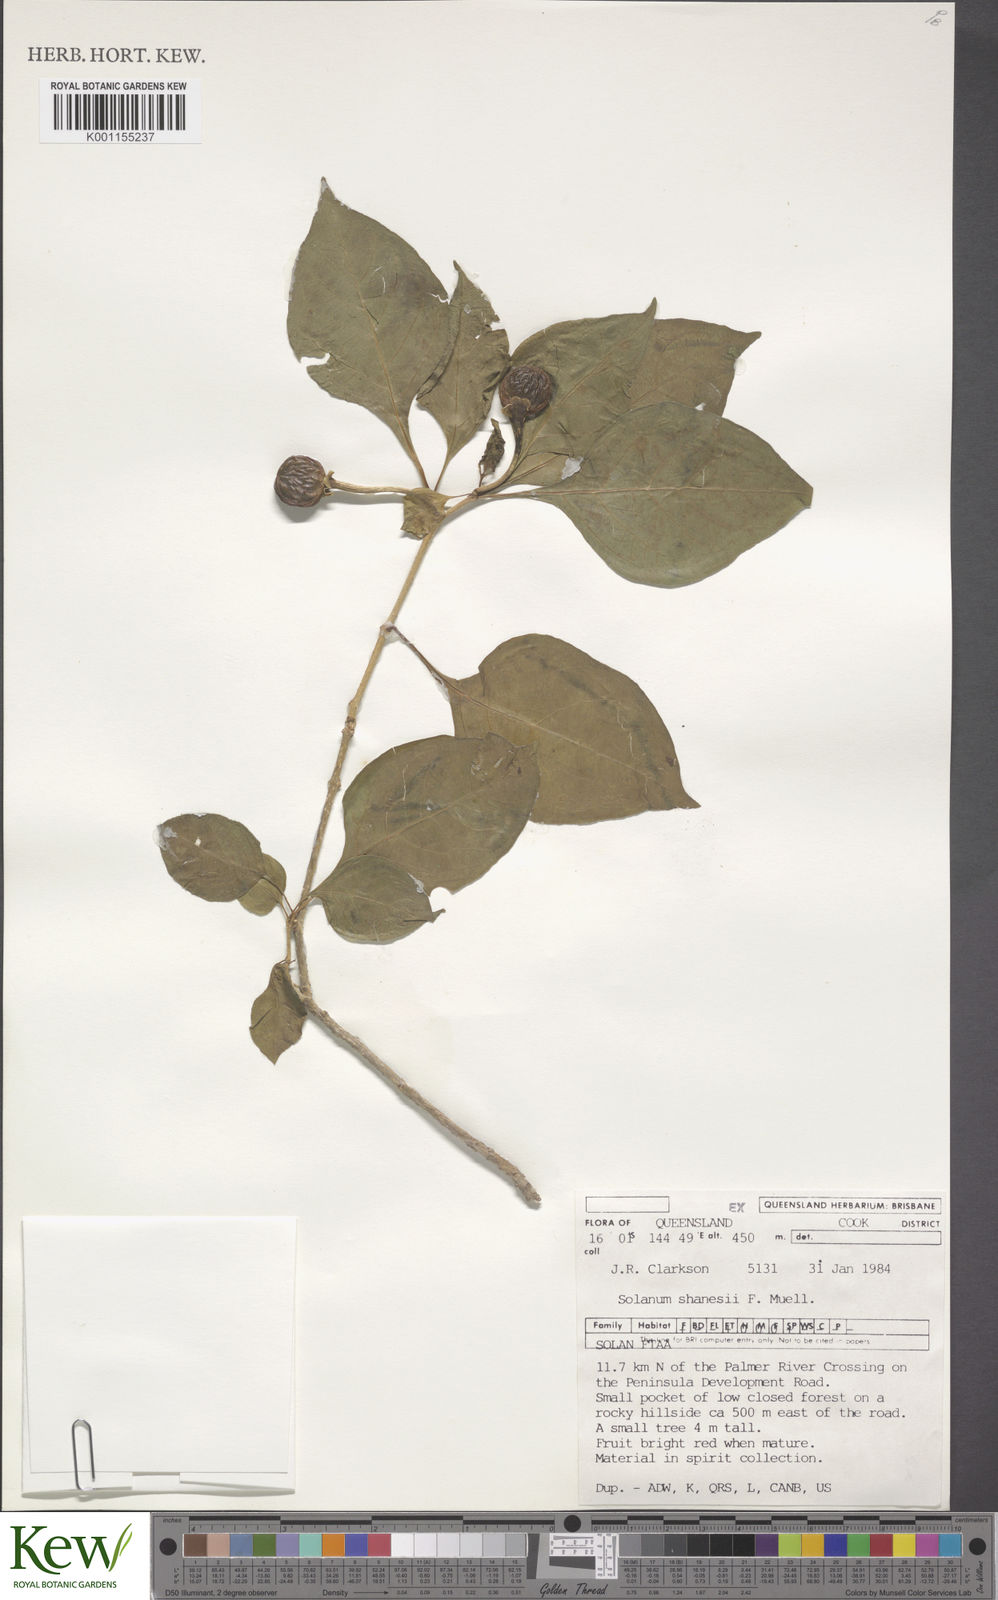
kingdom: Plantae
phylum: Tracheophyta
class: Magnoliopsida
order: Solanales
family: Solanaceae
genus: Lycianthes
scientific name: Lycianthes shanesii
